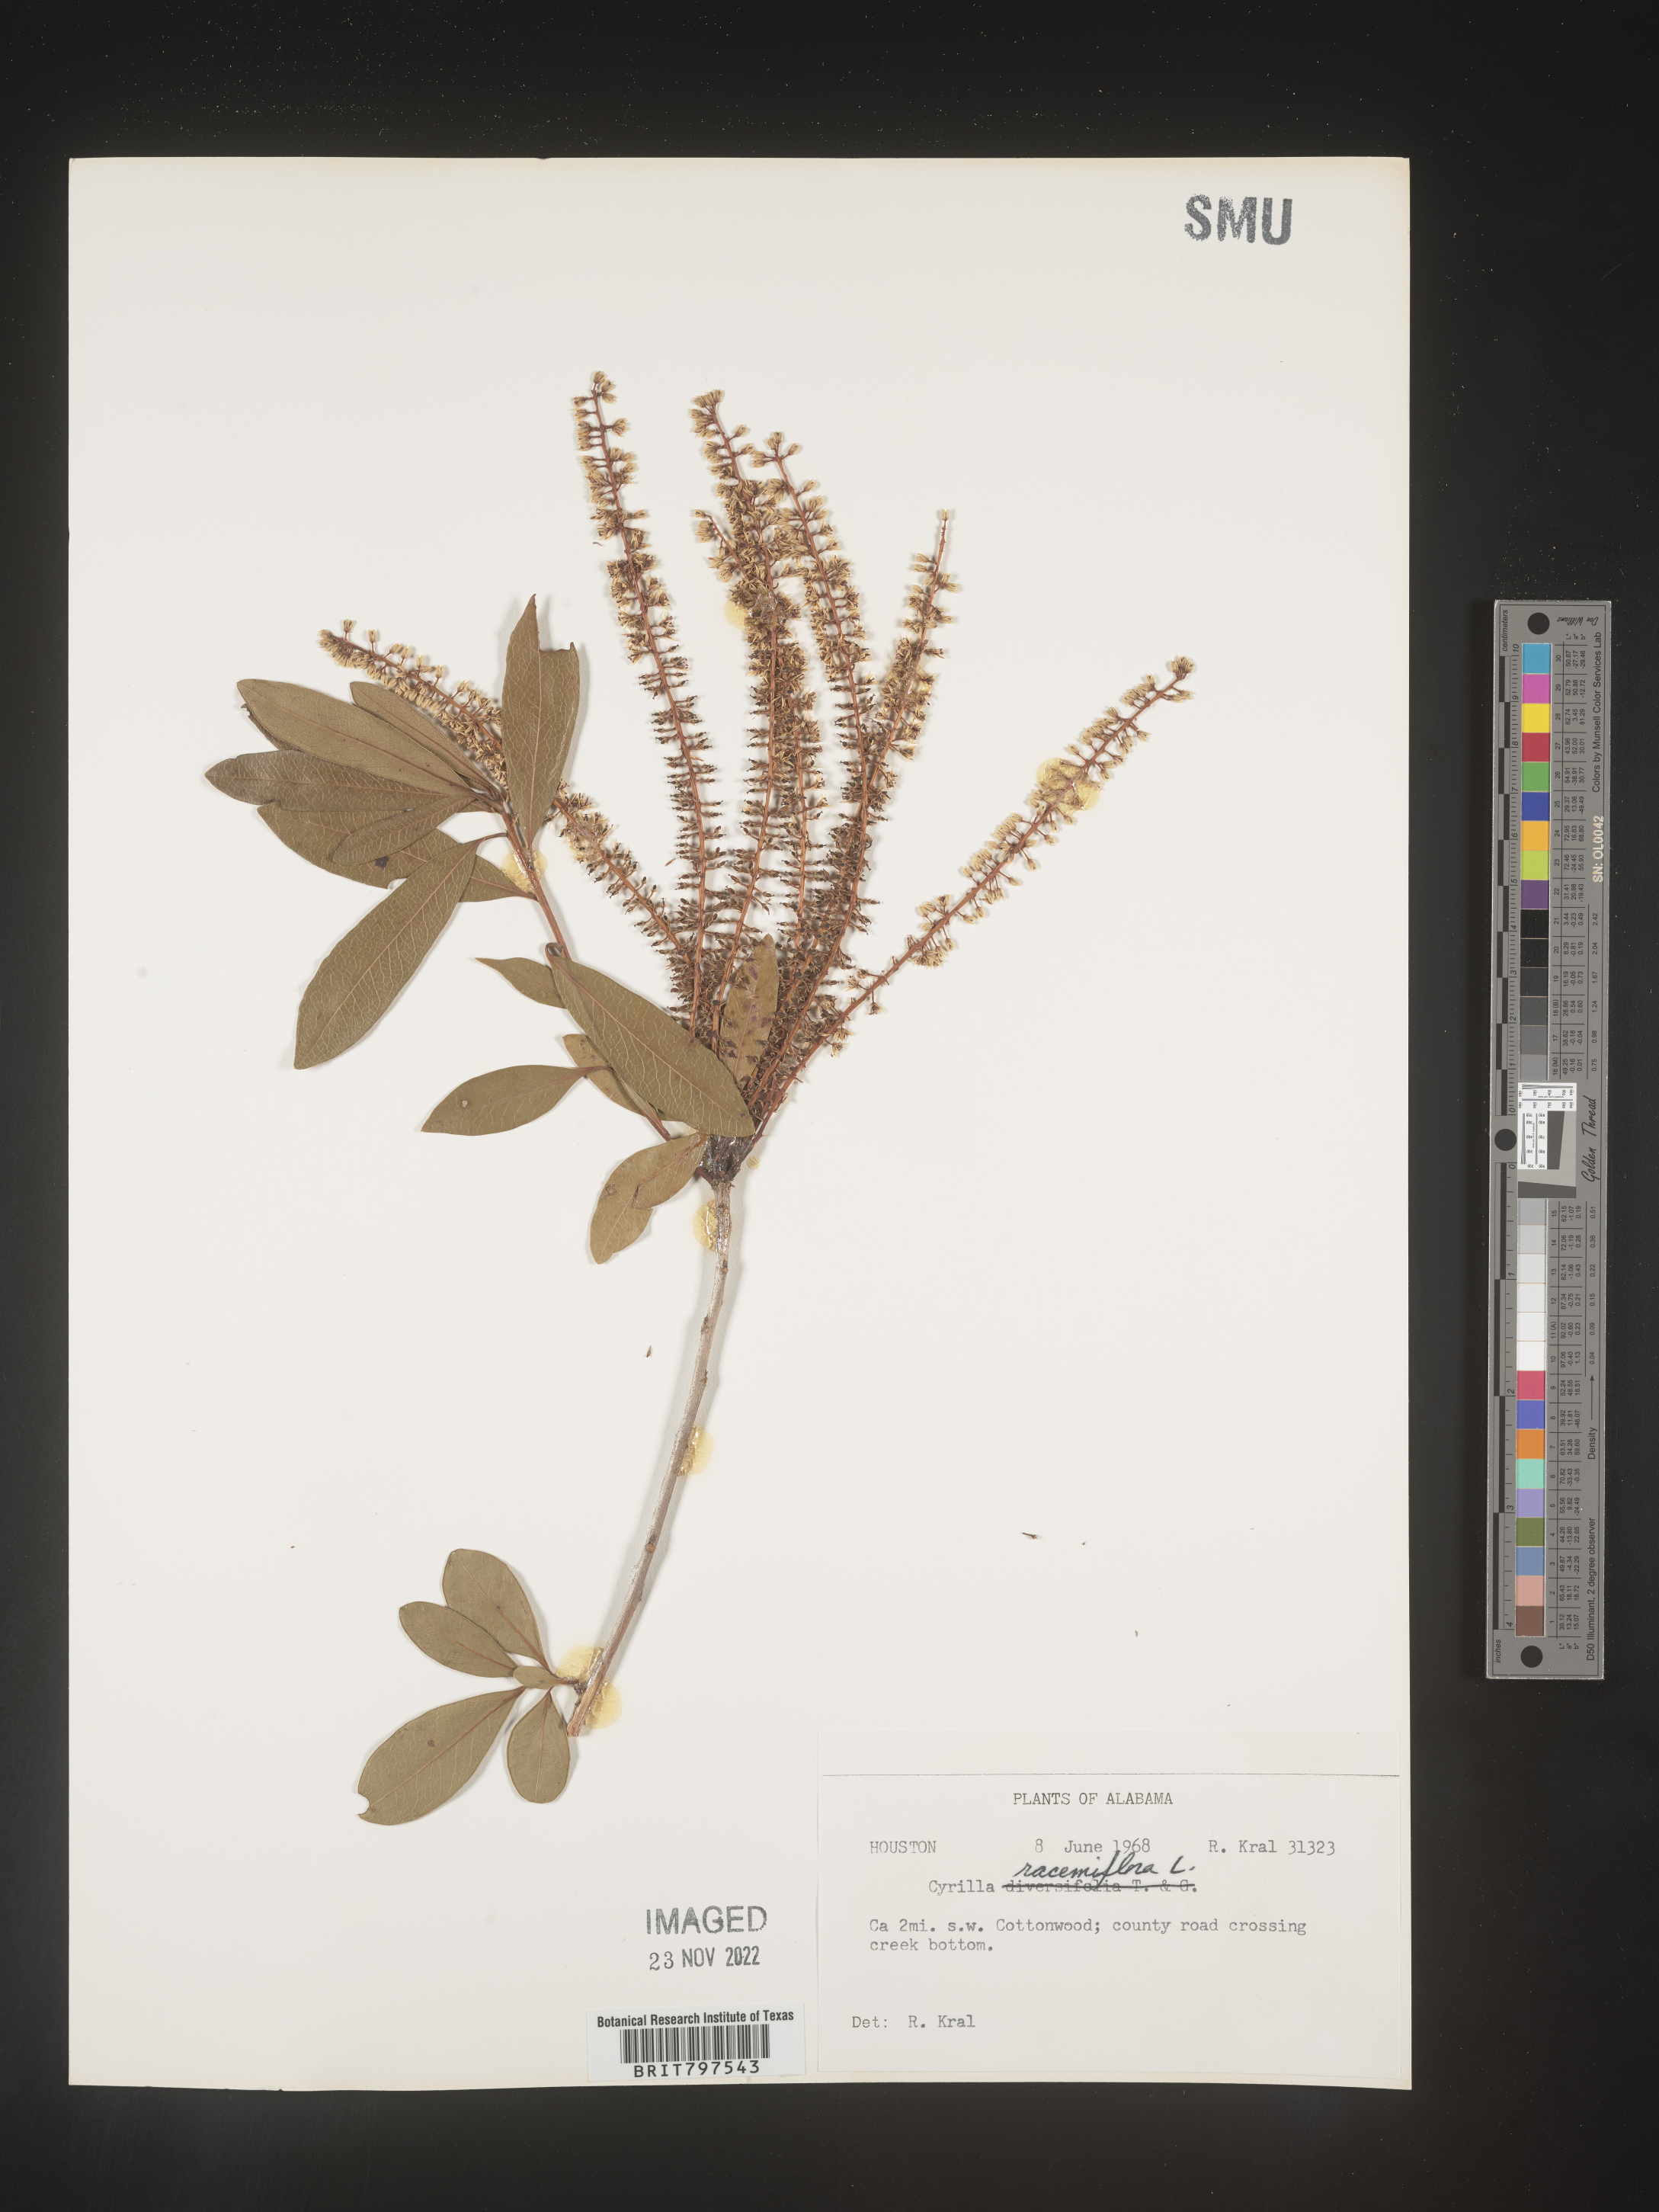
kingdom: Plantae
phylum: Tracheophyta
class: Magnoliopsida
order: Ericales
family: Cyrillaceae
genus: Cyrilla
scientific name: Cyrilla racemiflora
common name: Black titi
